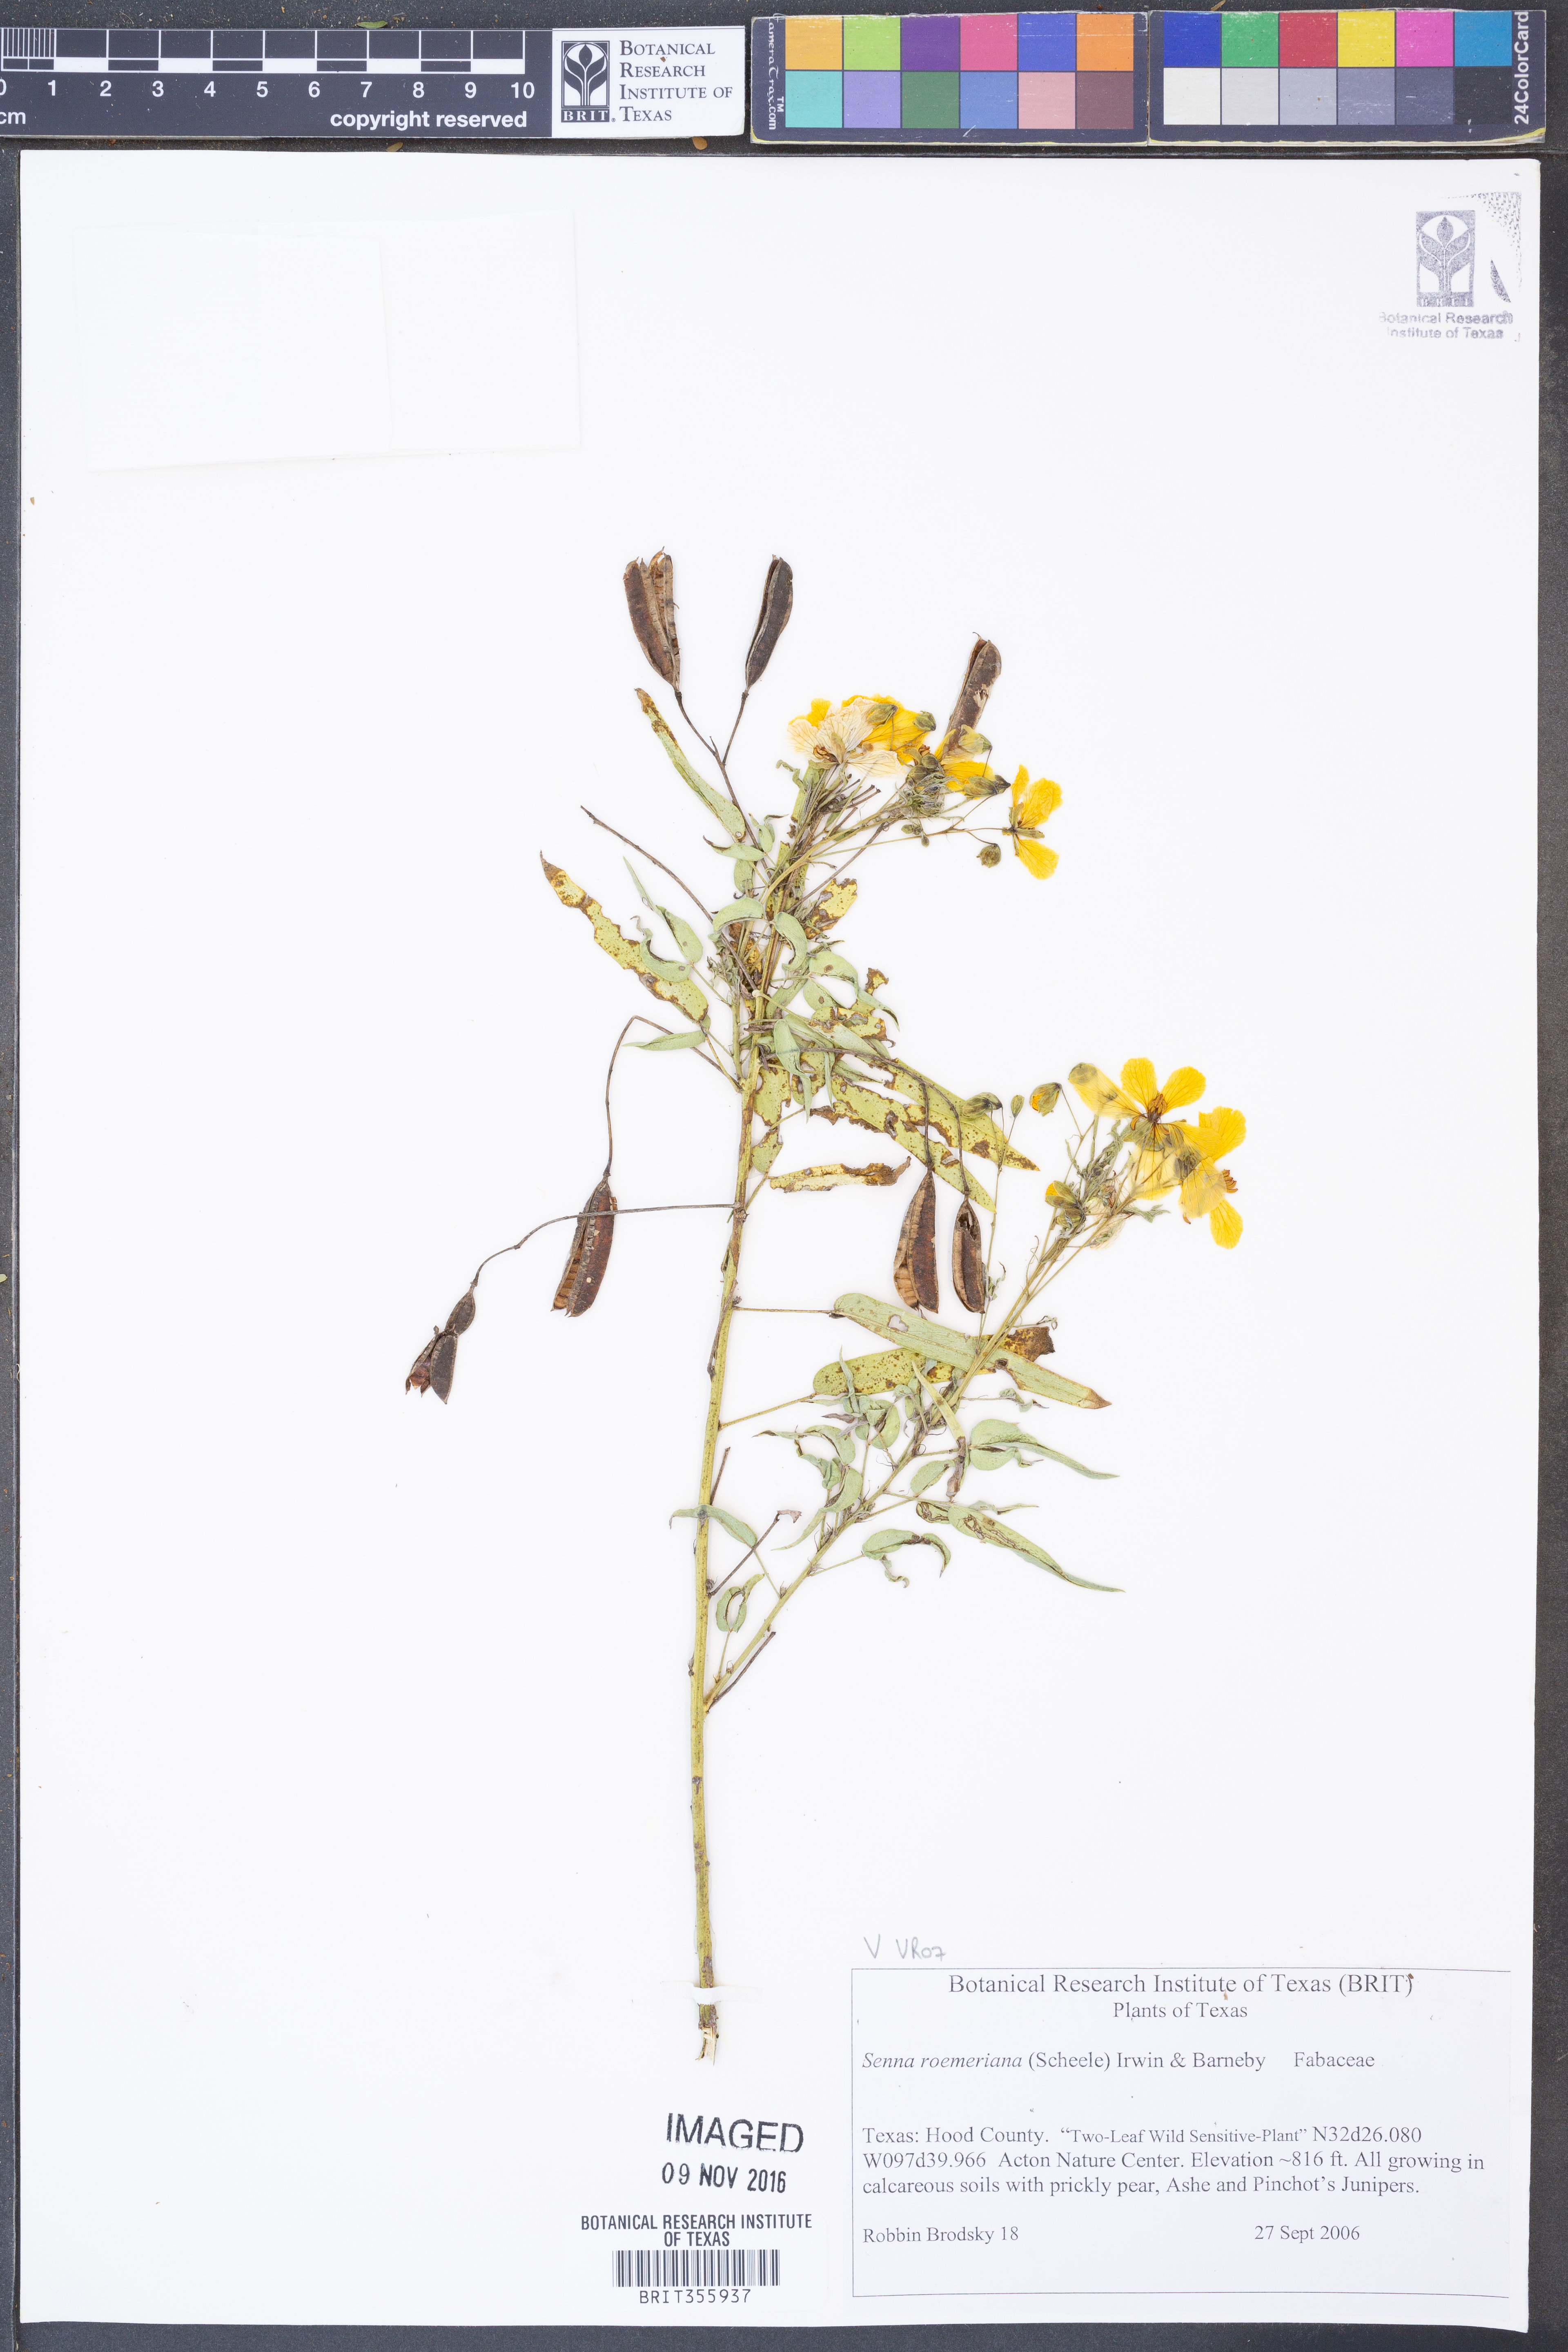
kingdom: Plantae
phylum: Tracheophyta
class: Magnoliopsida
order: Fabales
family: Fabaceae
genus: Senna
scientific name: Senna roemeriana
